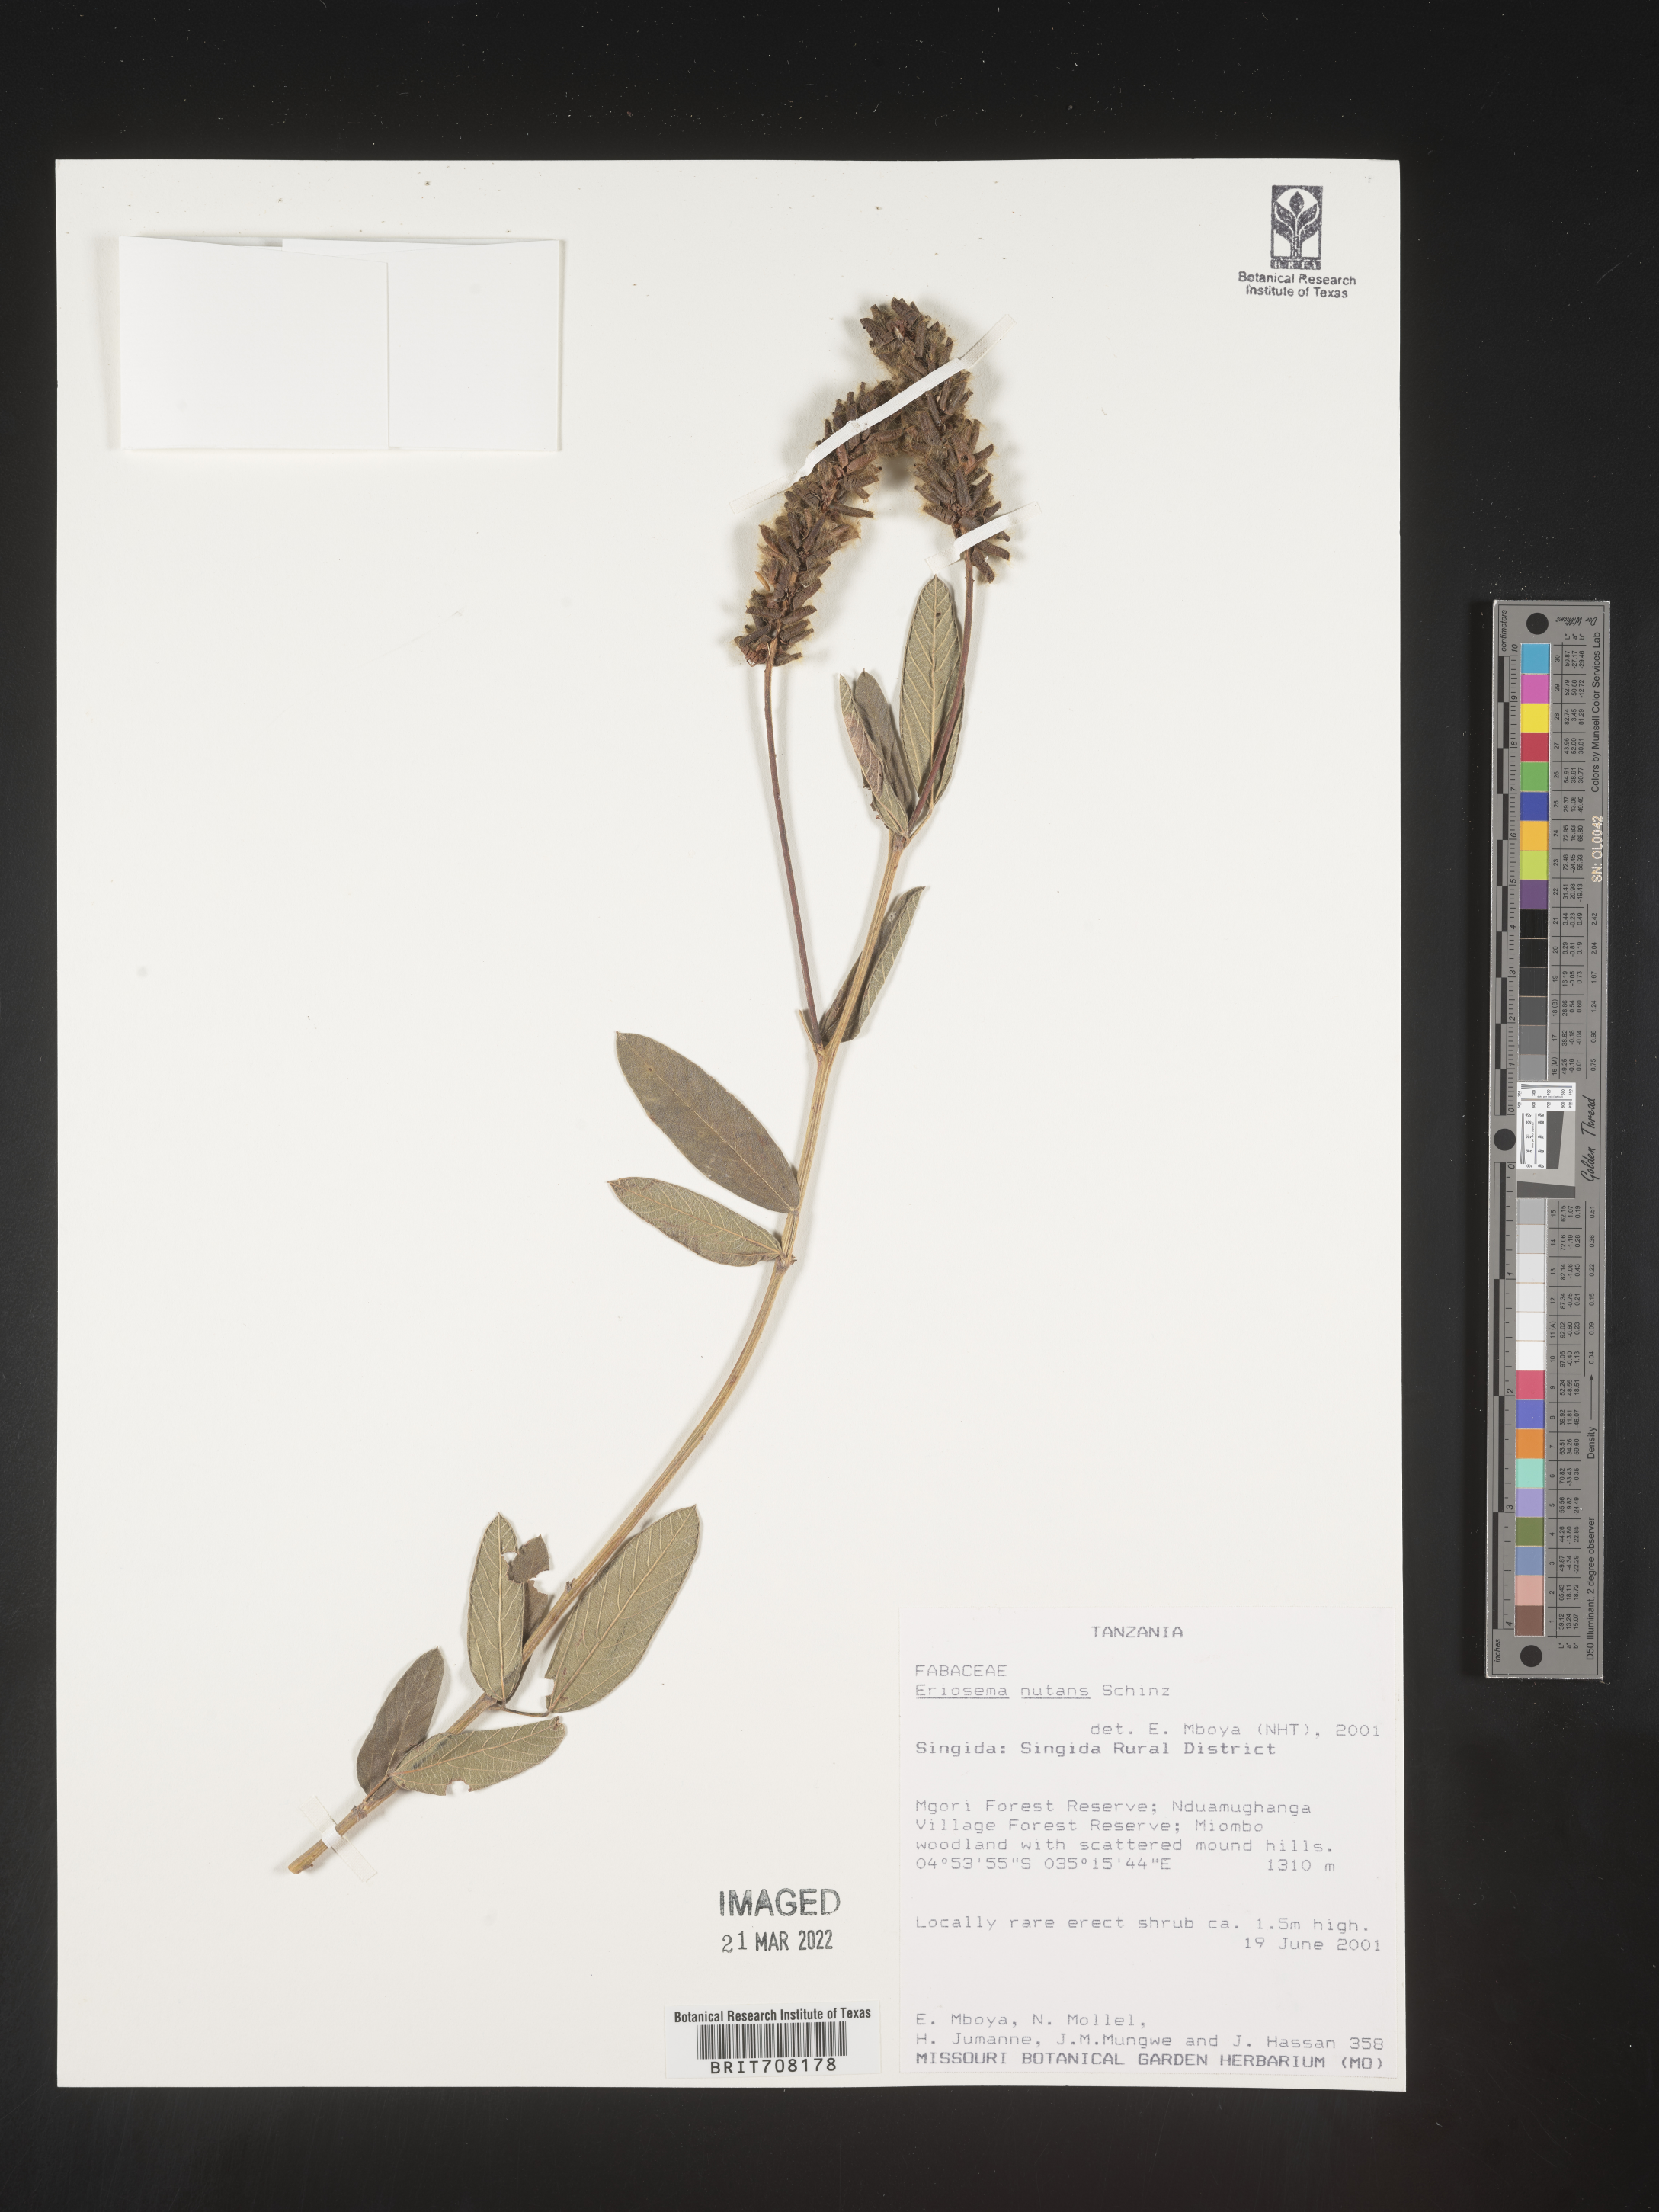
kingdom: Plantae
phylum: Tracheophyta
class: Magnoliopsida
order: Fabales
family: Fabaceae
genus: Eriosema
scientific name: Eriosema
